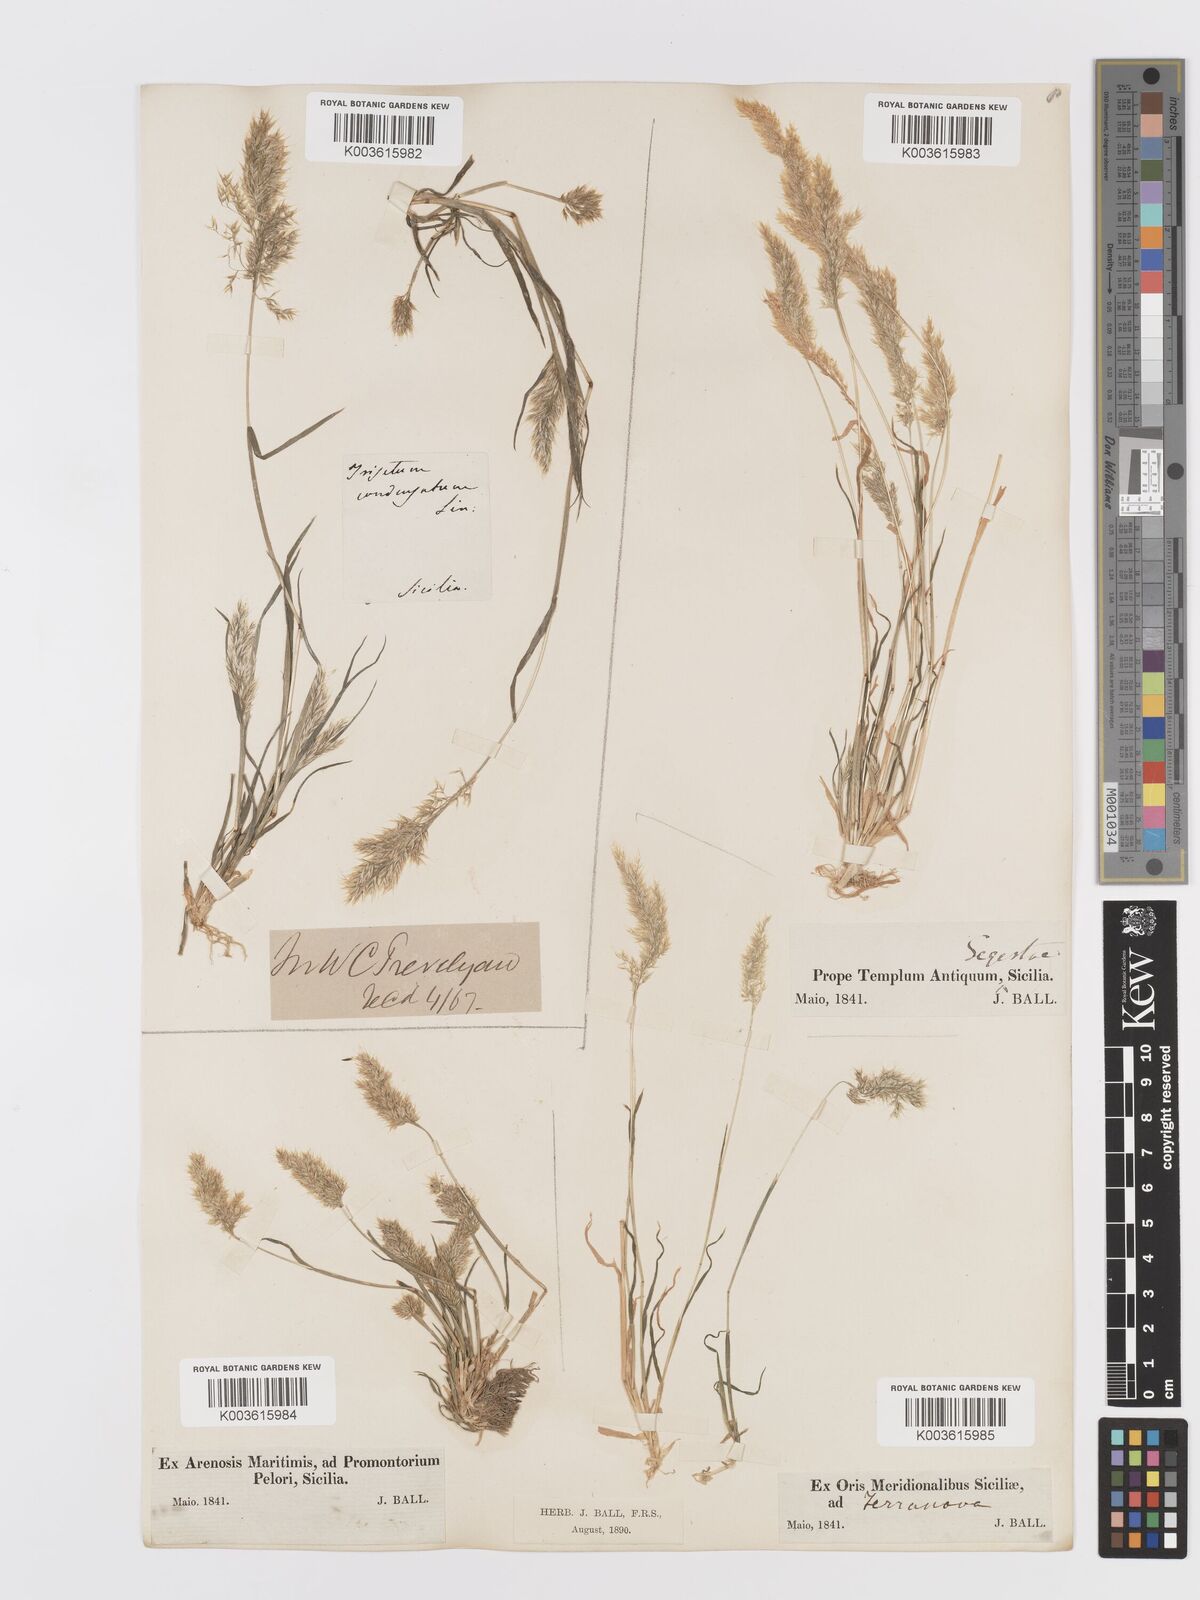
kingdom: Plantae
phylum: Tracheophyta
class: Liliopsida
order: Poales
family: Poaceae
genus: Trisetaria
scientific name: Trisetaria aurea
